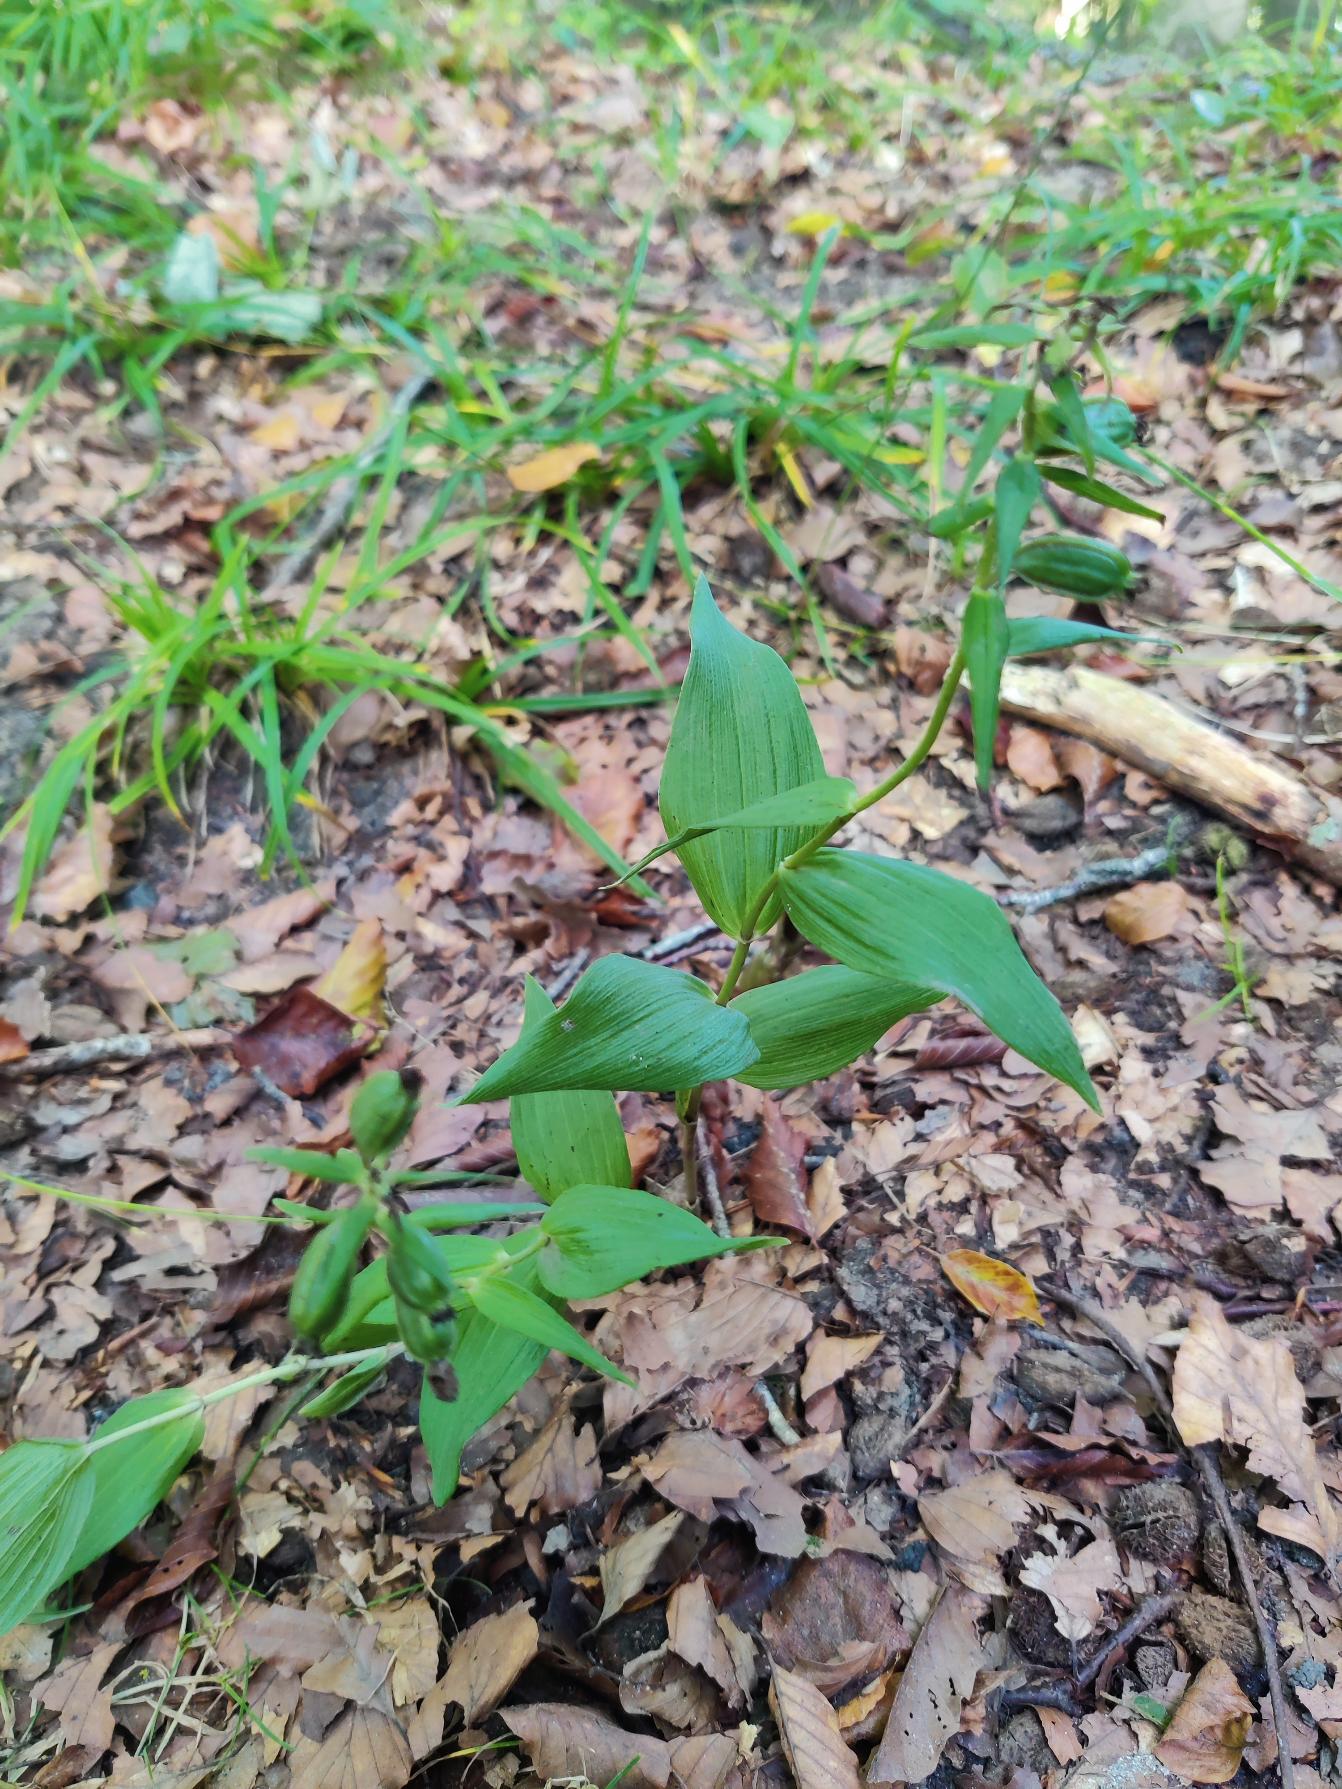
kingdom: Plantae
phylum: Tracheophyta
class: Liliopsida
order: Asparagales
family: Orchidaceae
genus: Epipactis
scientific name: Epipactis helleborine
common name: Skov-hullæbe
